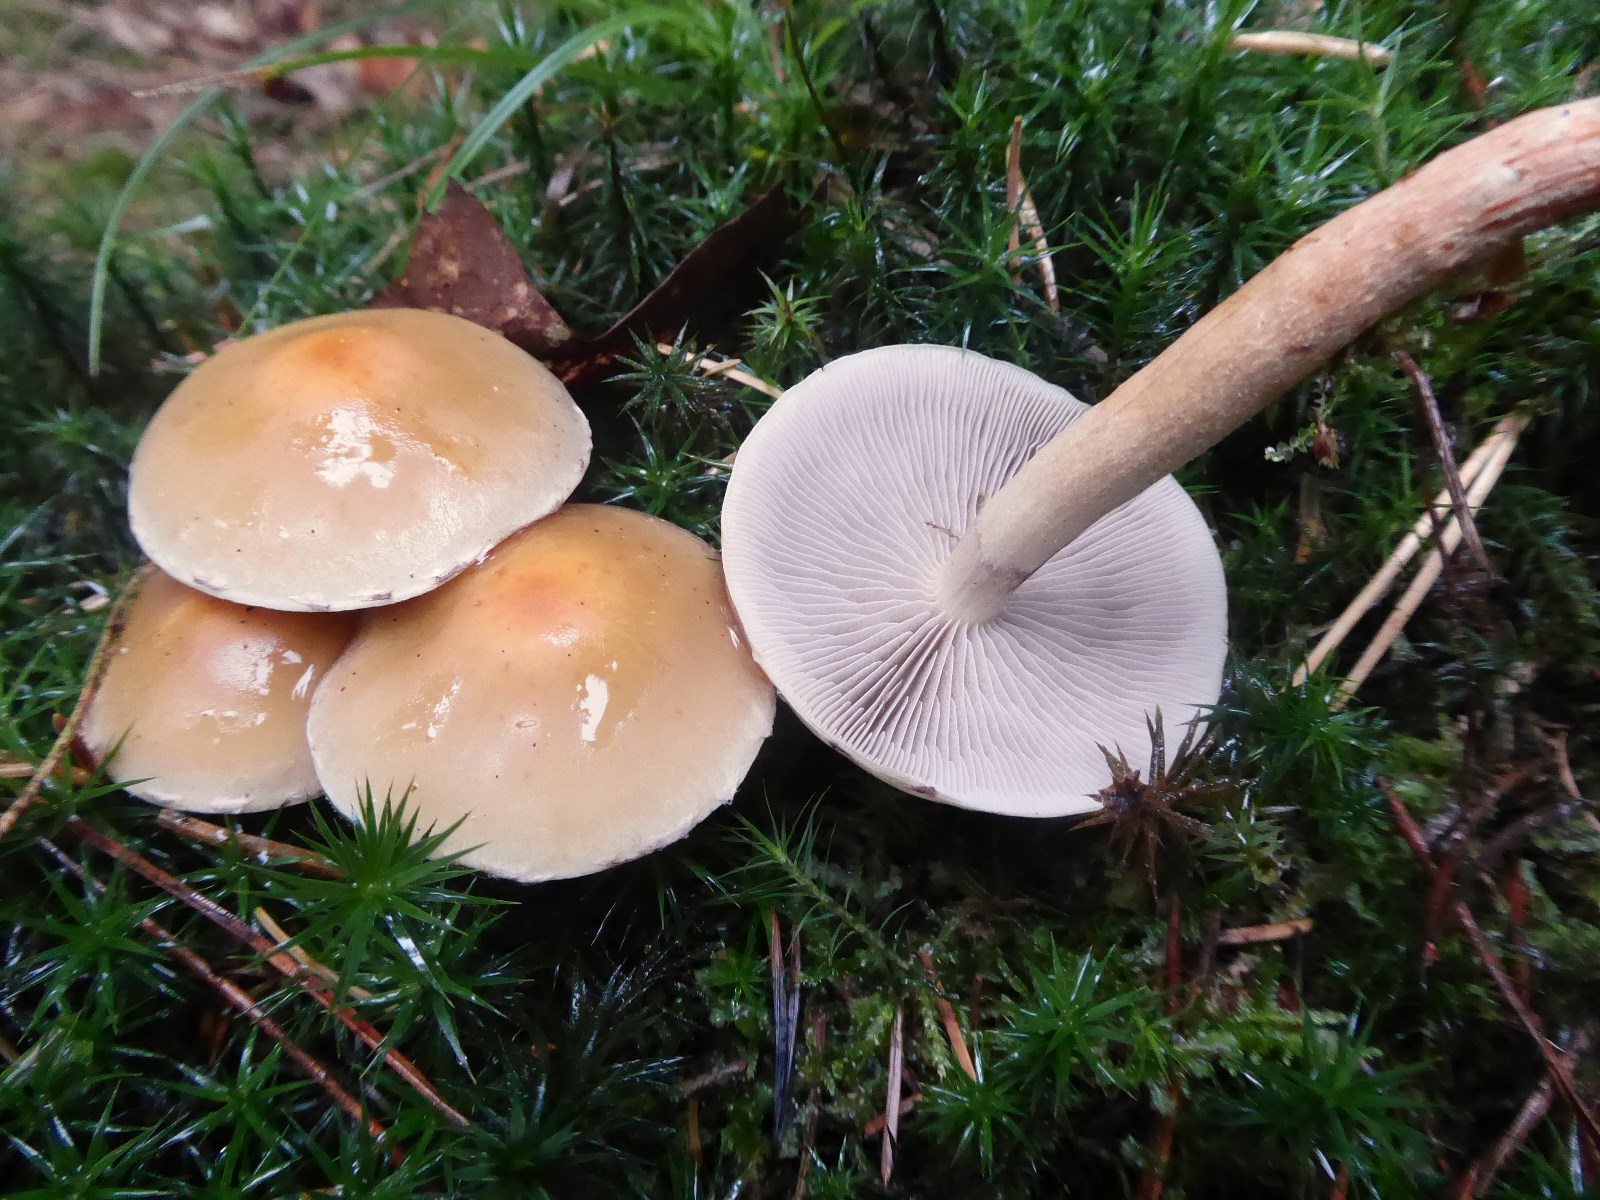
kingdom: Fungi
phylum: Basidiomycota
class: Agaricomycetes
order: Agaricales
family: Strophariaceae
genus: Hypholoma
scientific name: Hypholoma capnoides
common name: gran-svovlhat
